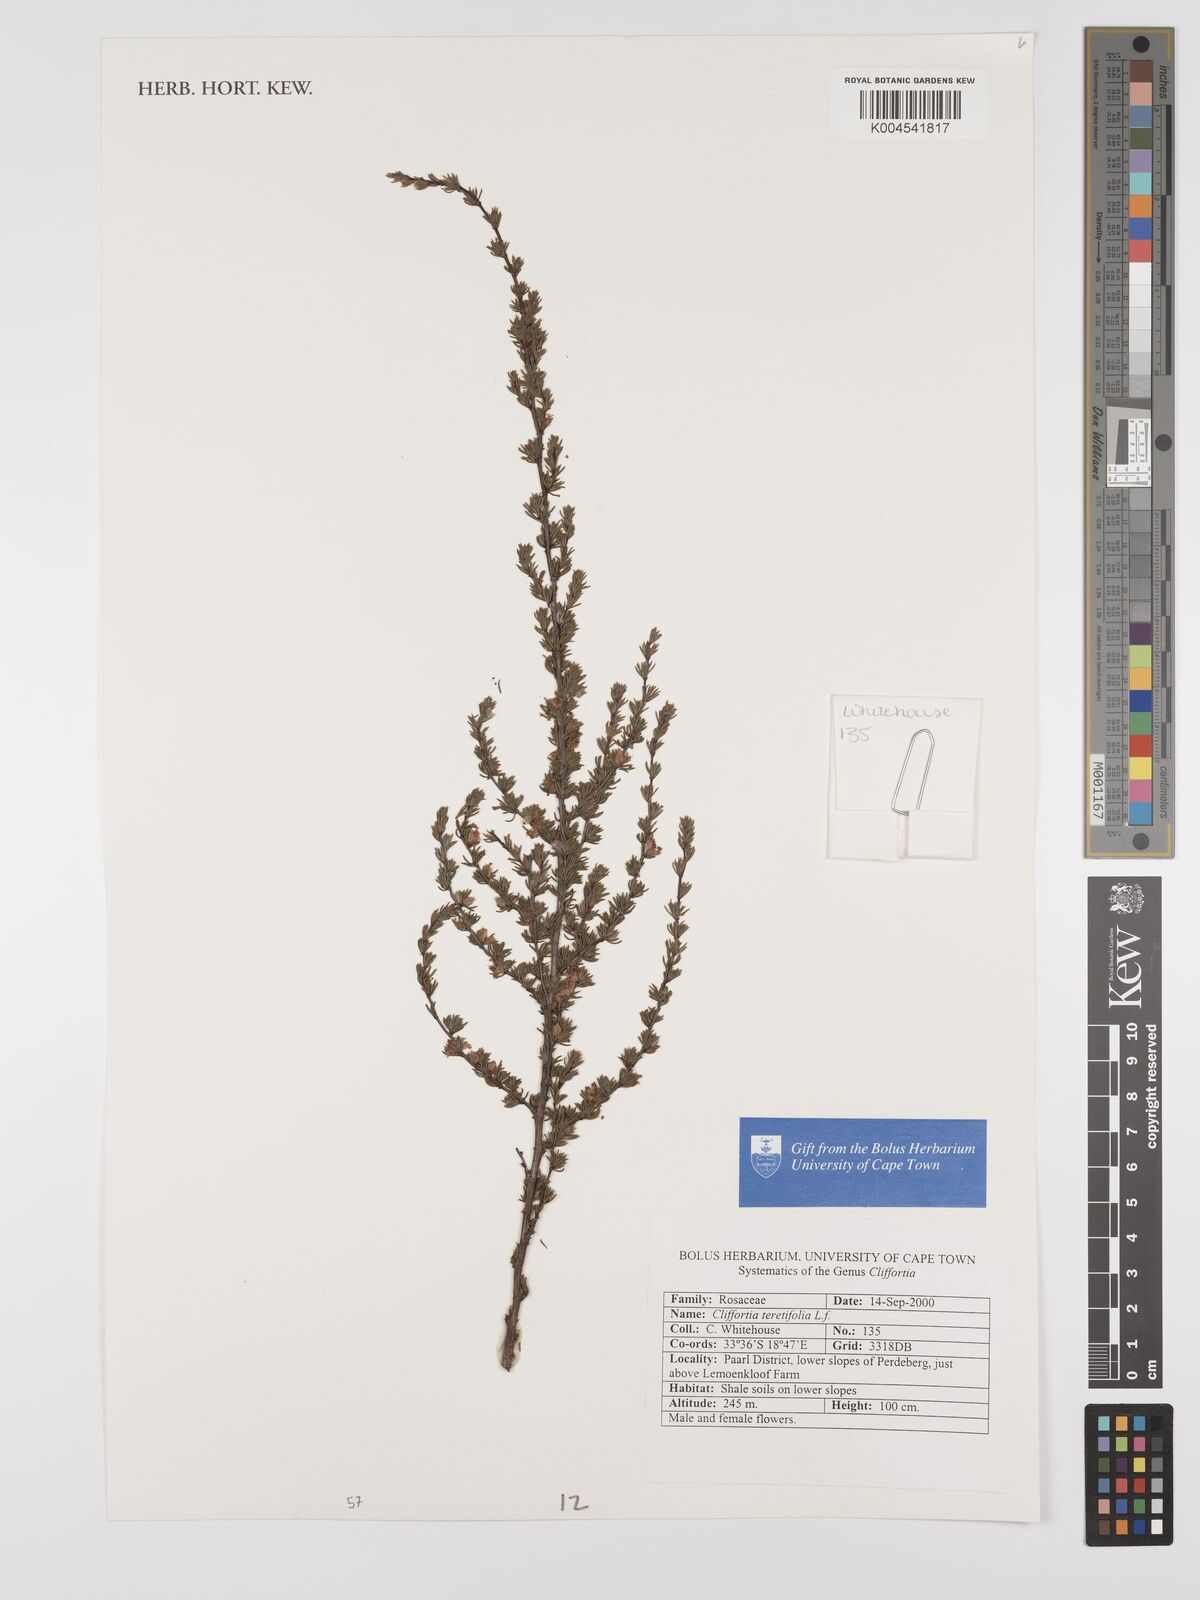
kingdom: Plantae
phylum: Tracheophyta
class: Magnoliopsida
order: Rosales
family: Rosaceae
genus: Cliffortia
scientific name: Cliffortia teretifolia
